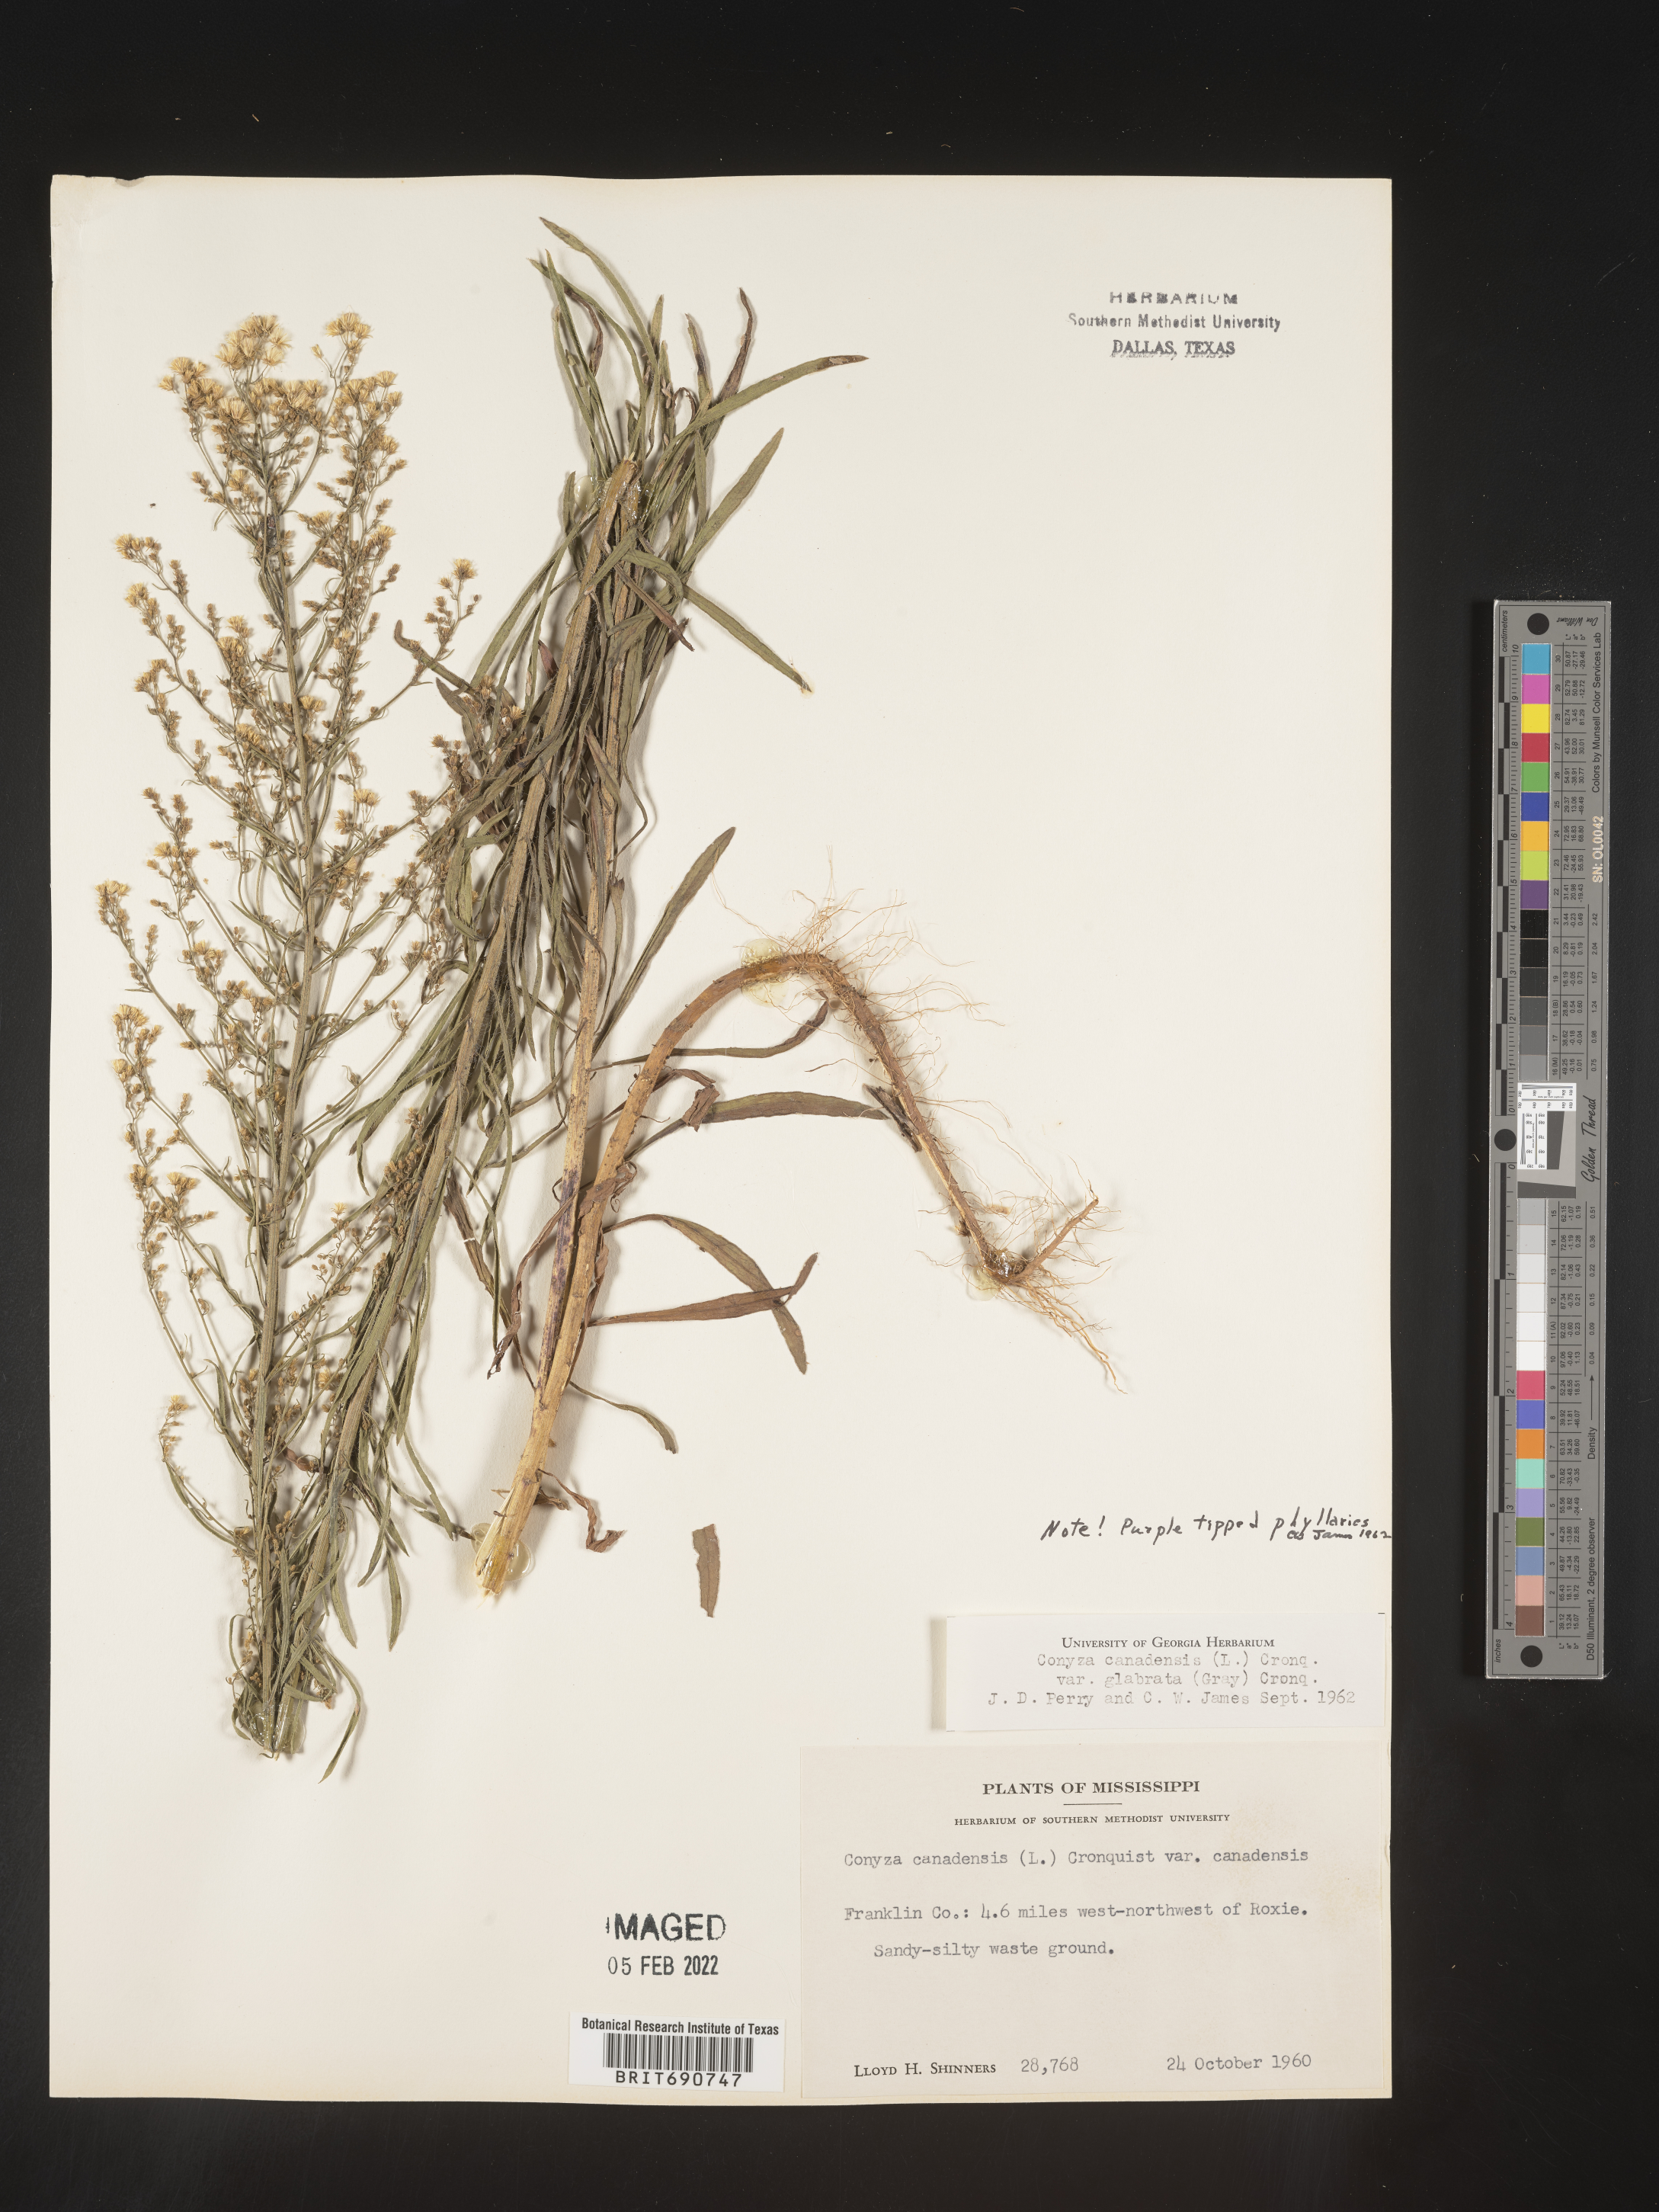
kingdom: Plantae
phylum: Tracheophyta
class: Magnoliopsida
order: Asterales
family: Asteraceae
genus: Erigeron
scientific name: Erigeron canadensis
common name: Canadian fleabane
